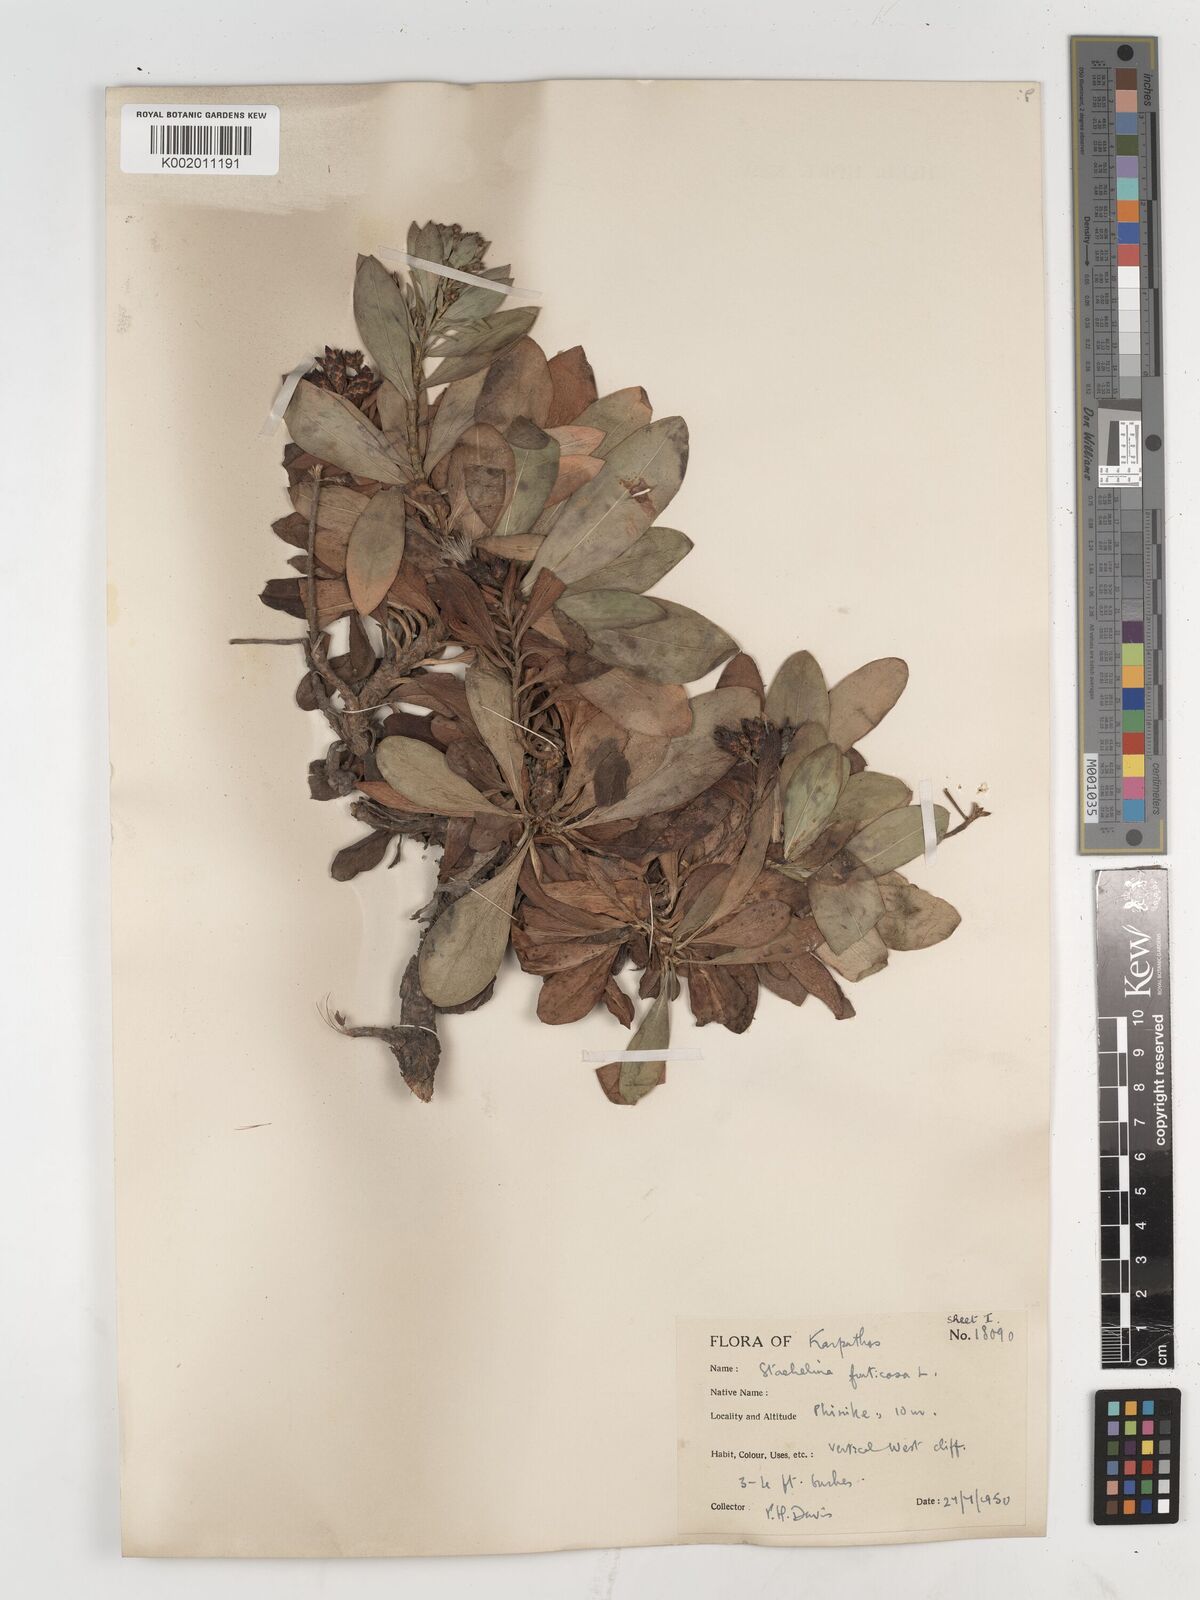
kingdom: Plantae
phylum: Tracheophyta
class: Magnoliopsida
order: Asterales
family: Asteraceae
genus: Hirtellina
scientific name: Hirtellina fruticosa
